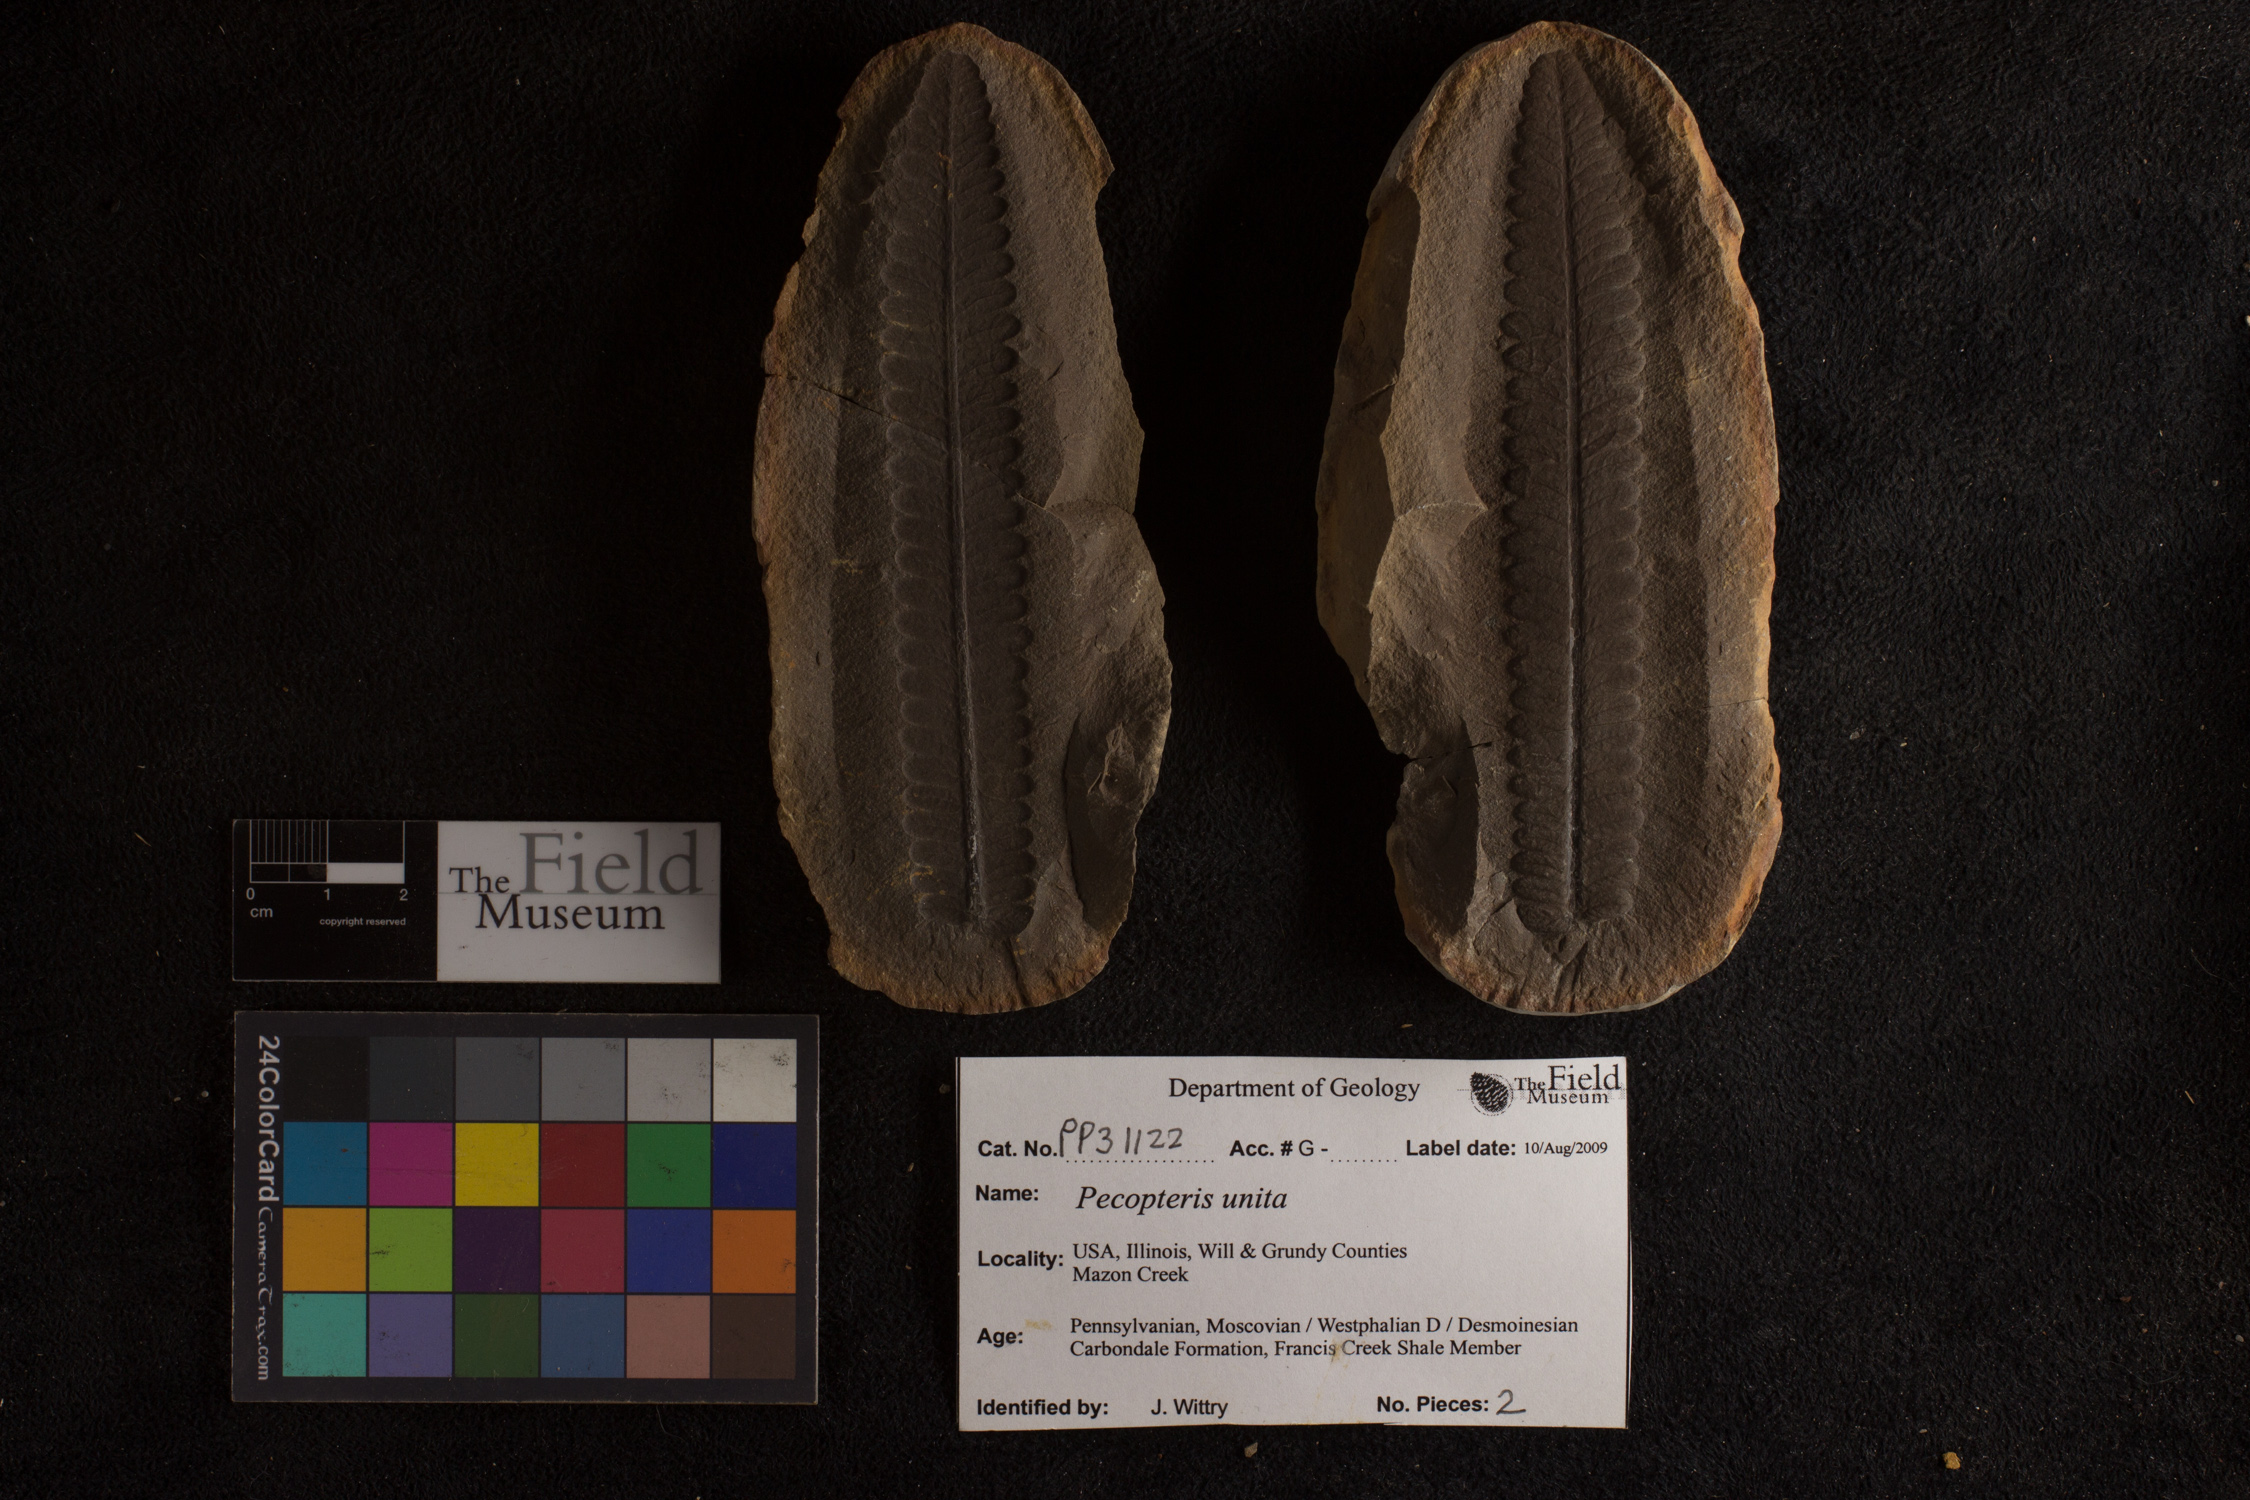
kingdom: Plantae
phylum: Tracheophyta
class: Polypodiopsida
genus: Diplazites
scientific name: Diplazites
